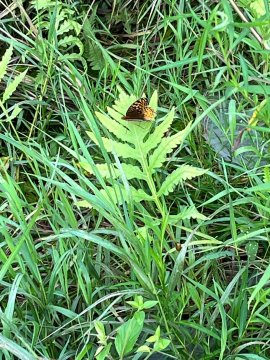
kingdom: Animalia
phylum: Arthropoda
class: Insecta
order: Lepidoptera
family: Nymphalidae
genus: Speyeria
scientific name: Speyeria cybele
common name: Great Spangled Fritillary
